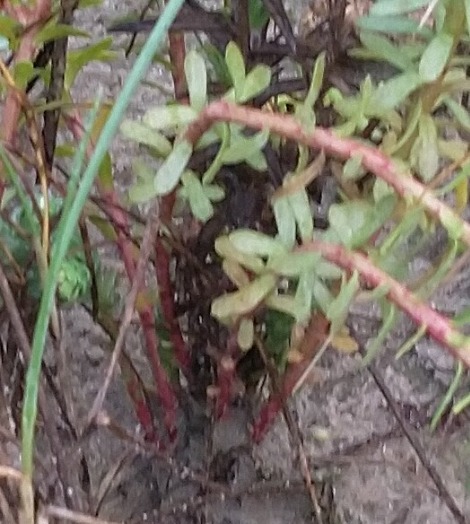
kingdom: Plantae
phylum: Tracheophyta
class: Magnoliopsida
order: Malpighiales
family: Euphorbiaceae
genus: Euphorbia
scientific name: Euphorbia paralias
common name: Kyst-vortemælk
